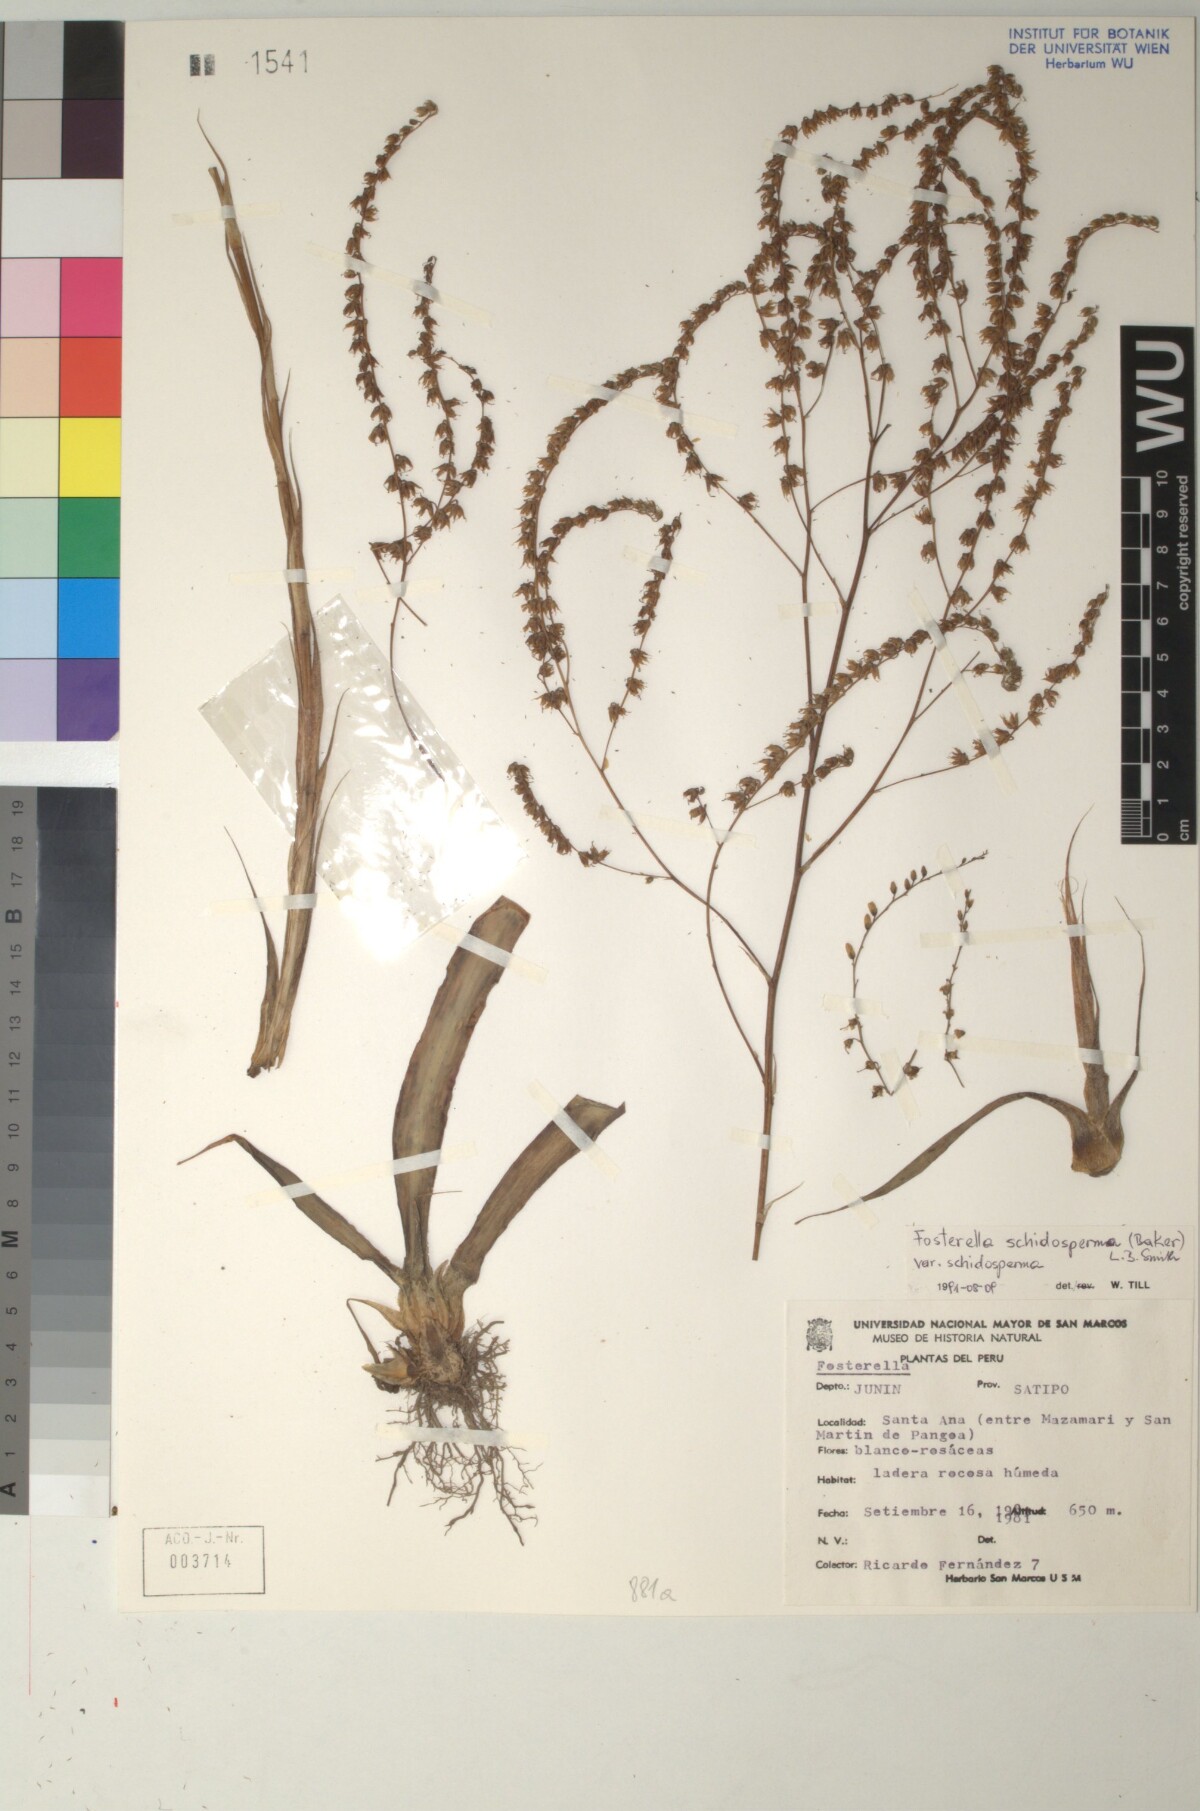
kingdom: Plantae
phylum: Tracheophyta
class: Liliopsida
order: Poales
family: Bromeliaceae
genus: Fosterella
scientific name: Fosterella schidosperma
